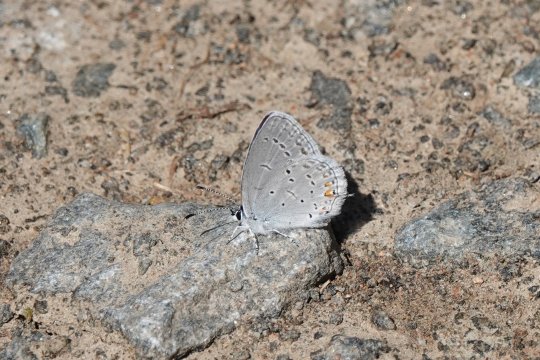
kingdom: Animalia
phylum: Arthropoda
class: Insecta
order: Lepidoptera
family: Lycaenidae
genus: Elkalyce
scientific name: Elkalyce comyntas
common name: Eastern Tailed-Blue
